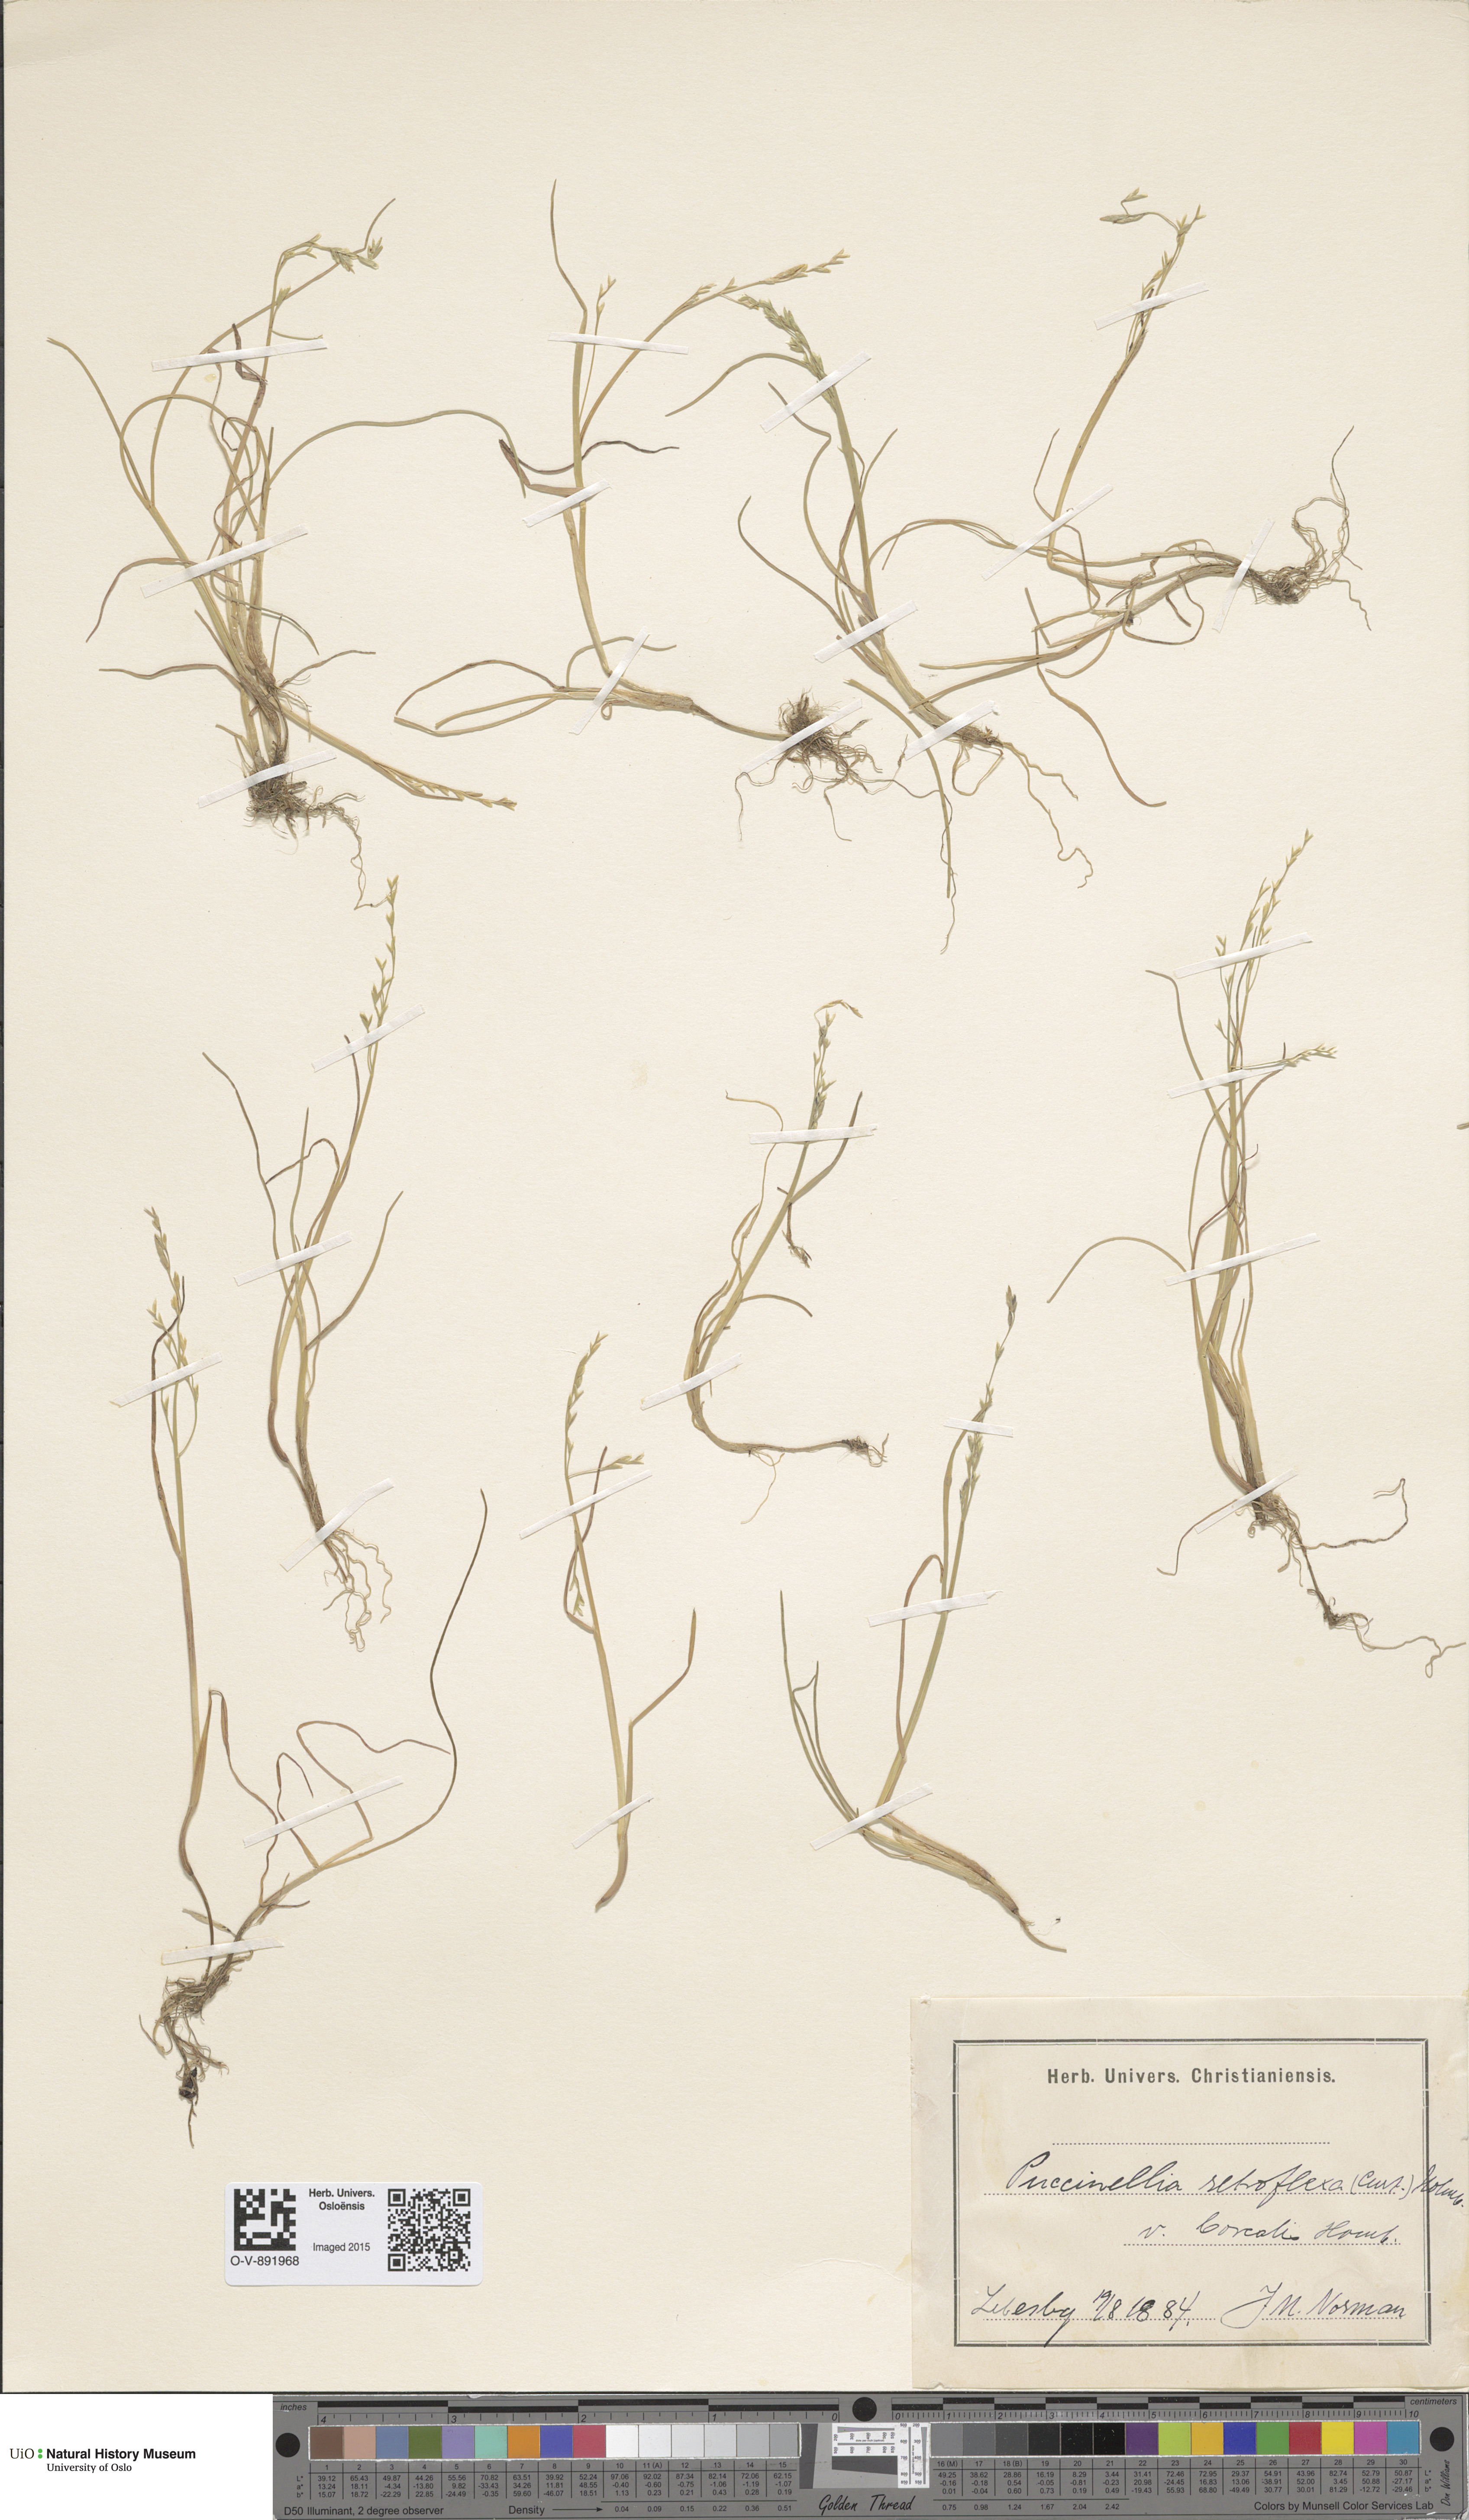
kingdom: Plantae
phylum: Tracheophyta
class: Liliopsida
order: Poales
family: Poaceae
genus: Puccinellia
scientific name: Puccinellia distans
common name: Weeping alkaligrass
